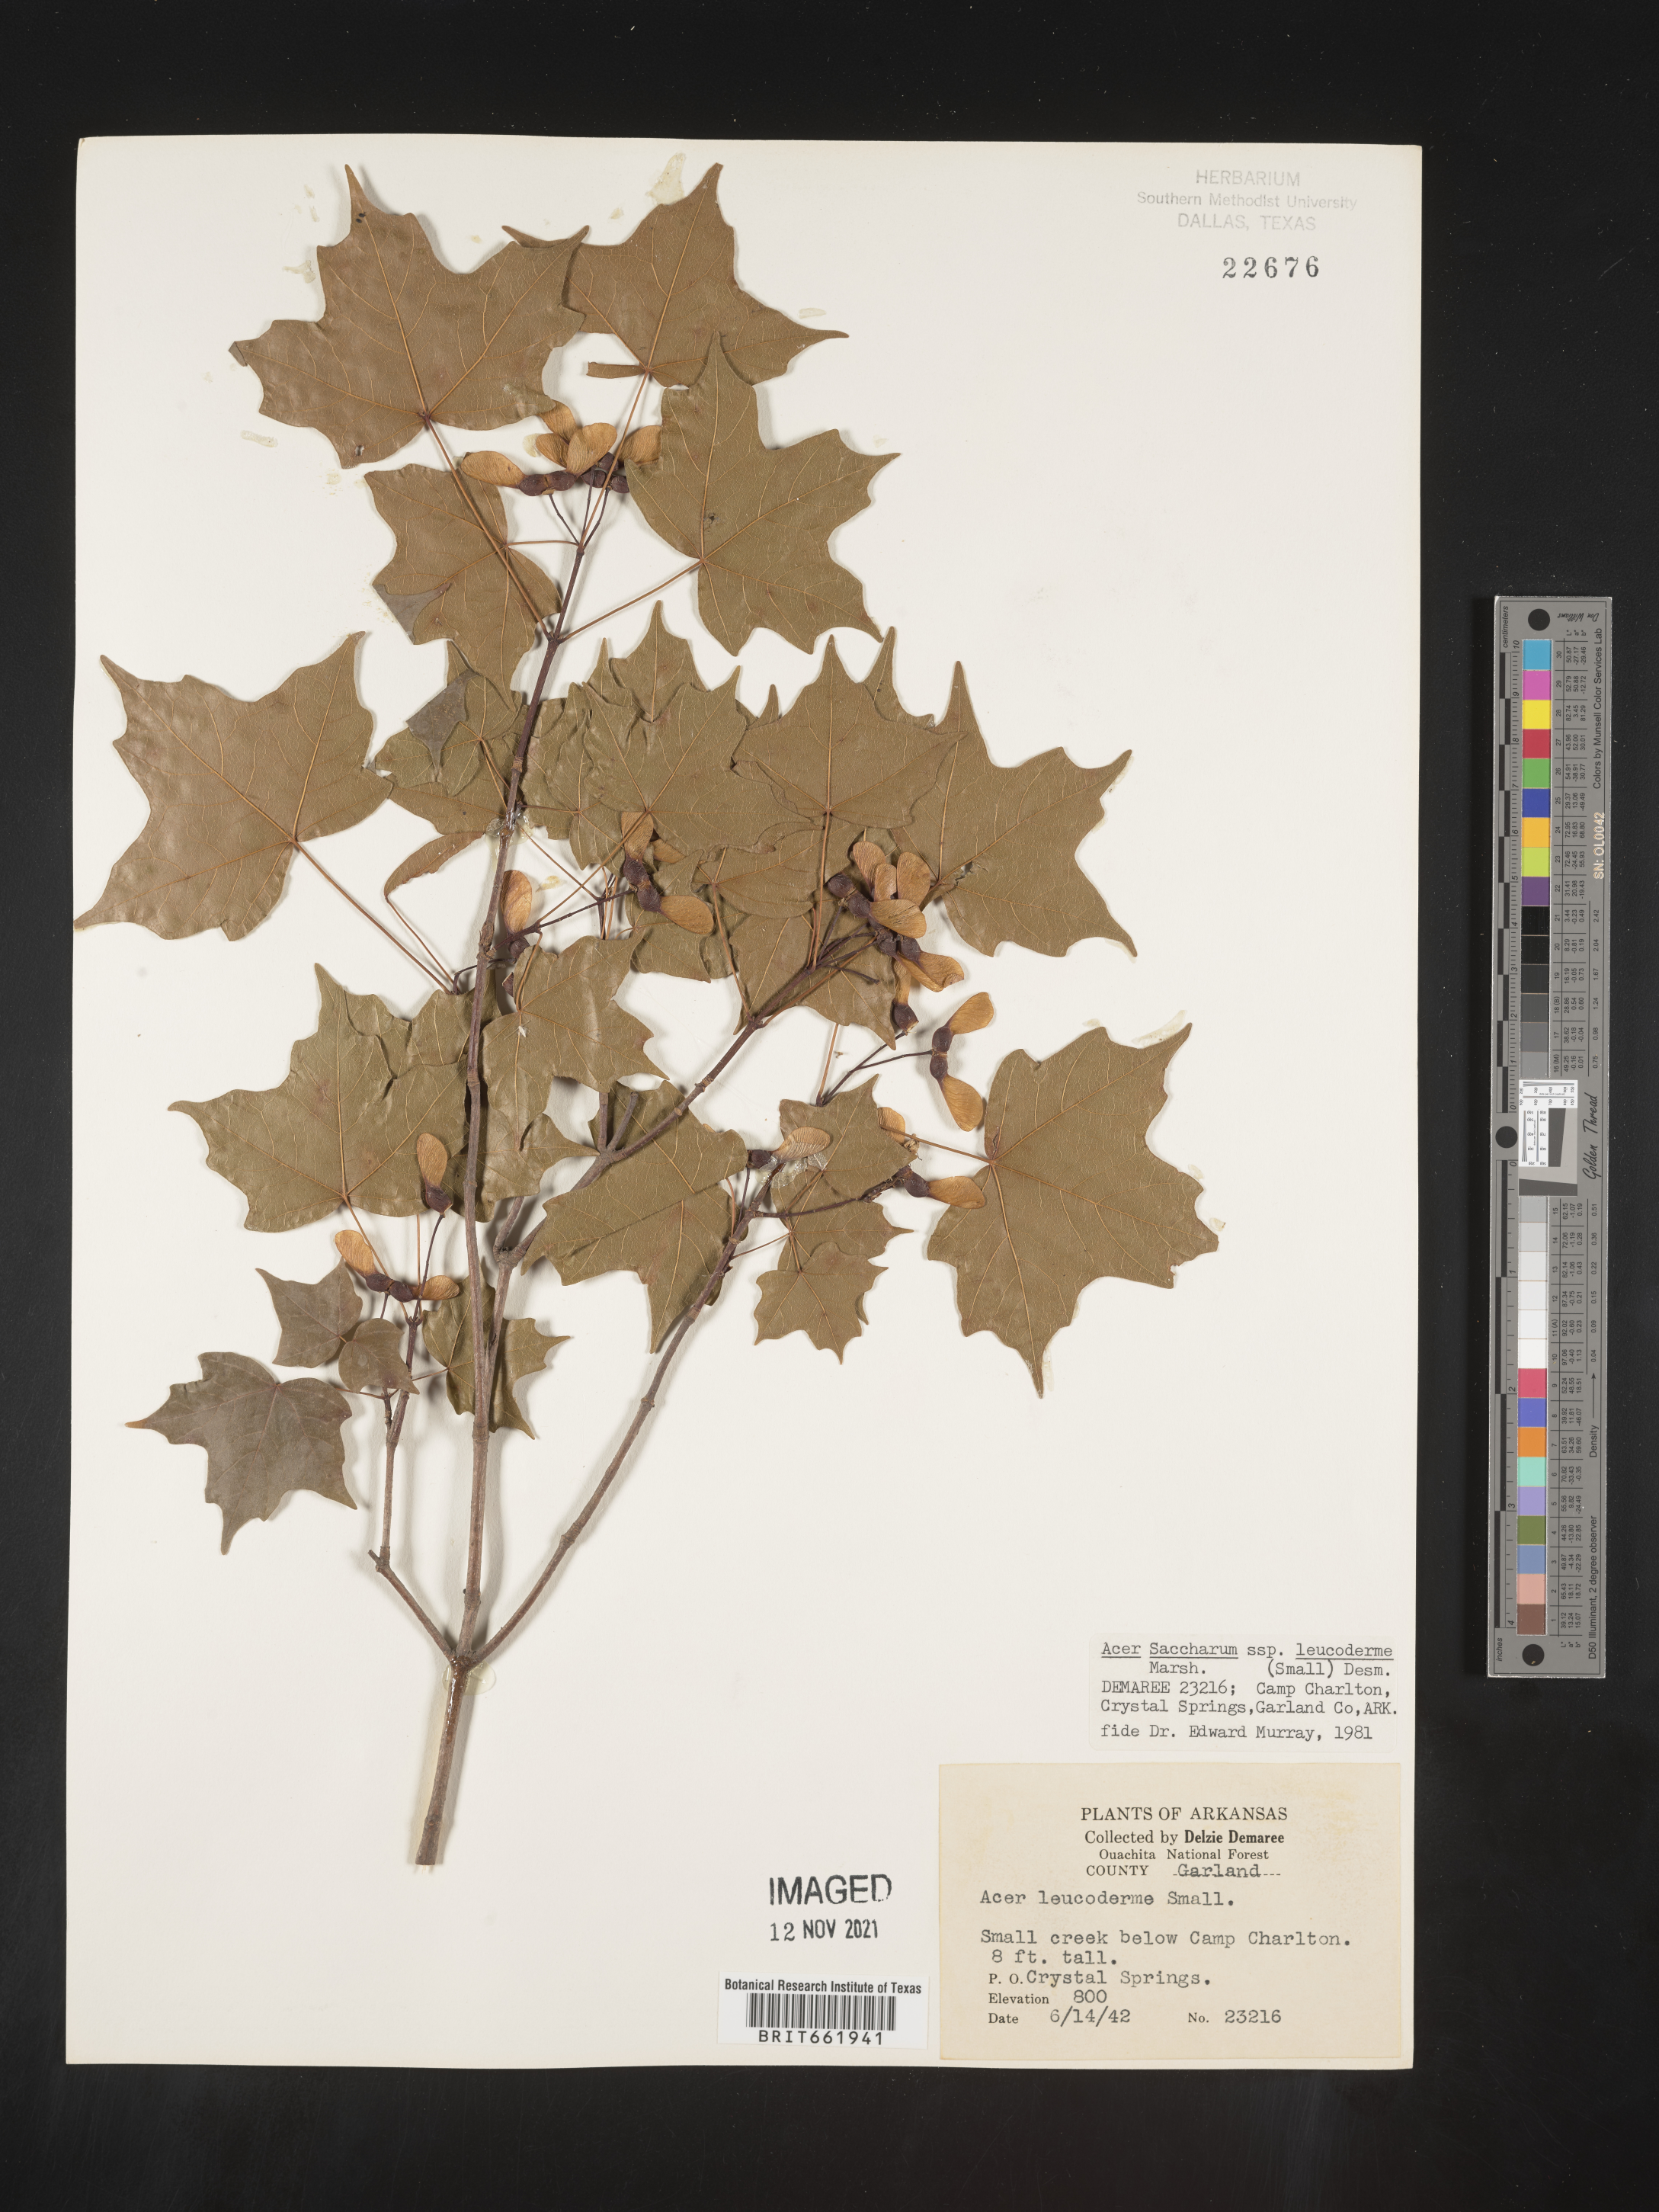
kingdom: Plantae
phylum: Tracheophyta
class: Magnoliopsida
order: Sapindales
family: Sapindaceae
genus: Acer
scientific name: Acer leucoderme
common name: Chalk maple
